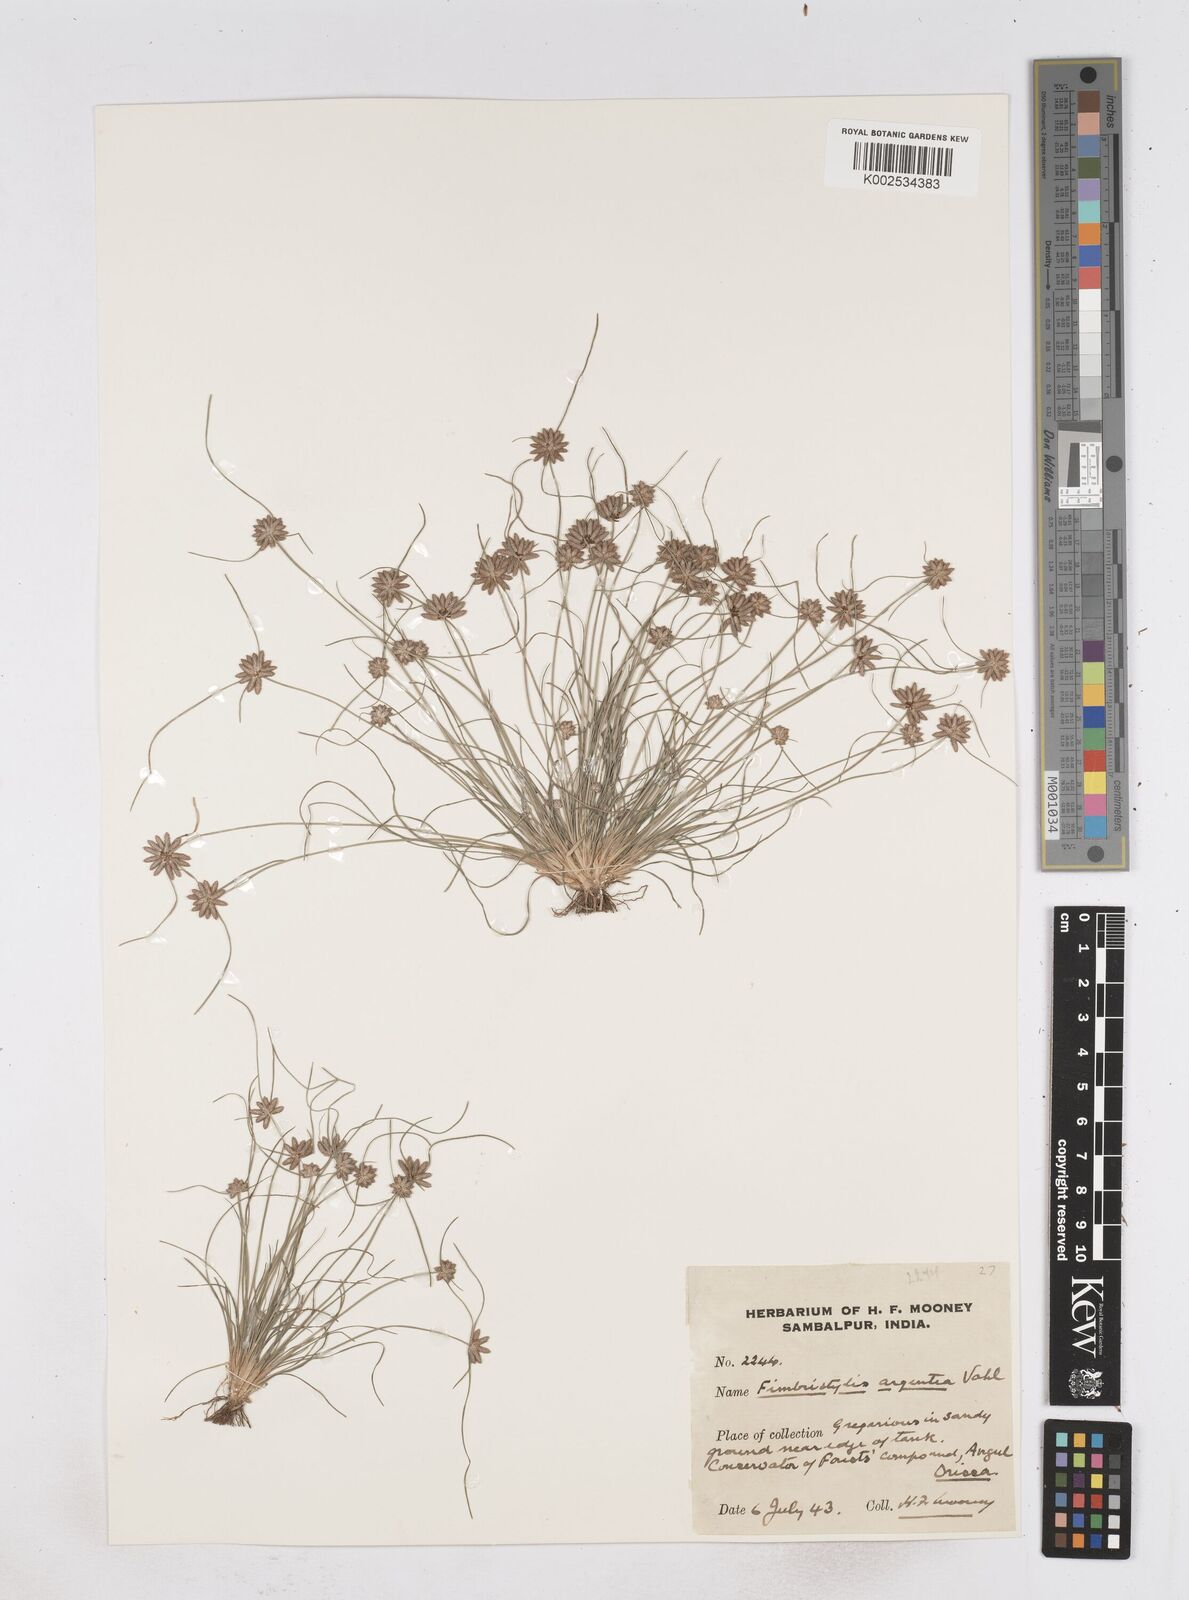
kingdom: Plantae
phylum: Tracheophyta
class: Liliopsida
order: Poales
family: Cyperaceae
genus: Fimbristylis
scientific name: Fimbristylis argentea
